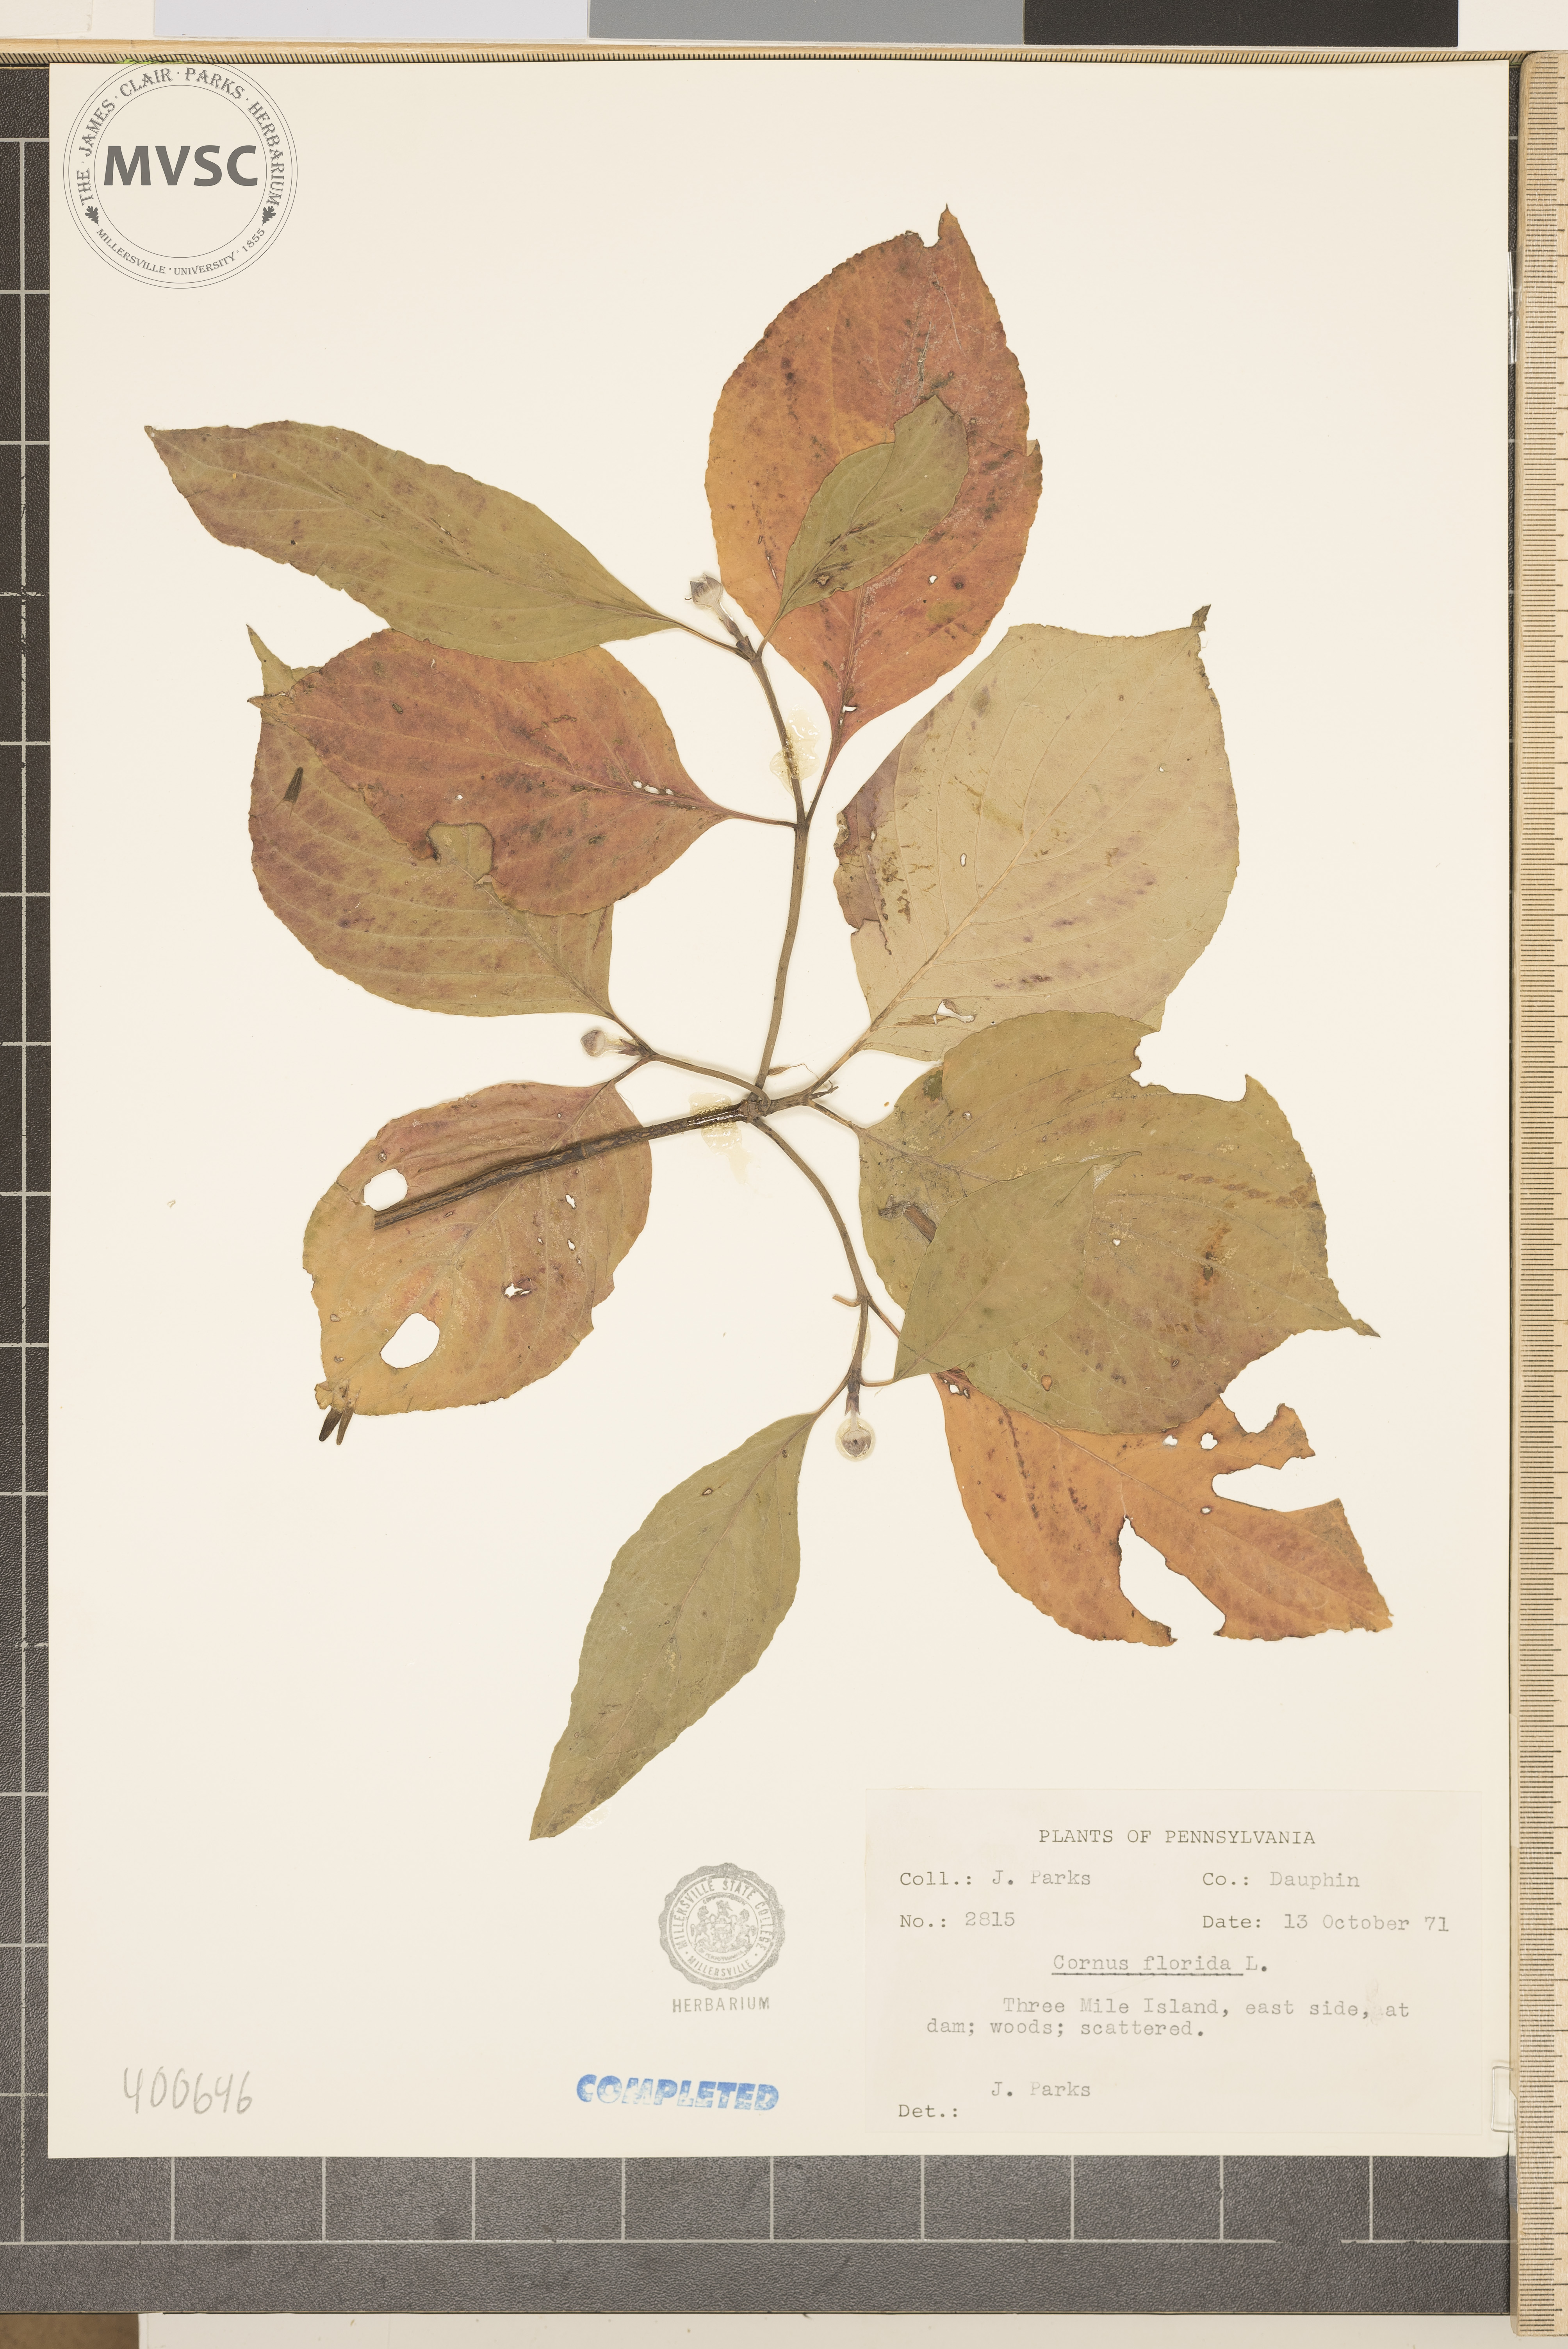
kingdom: Plantae
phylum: Tracheophyta
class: Magnoliopsida
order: Cornales
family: Cornaceae
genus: Cornus
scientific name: Cornus florida
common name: Flowering dogwood
